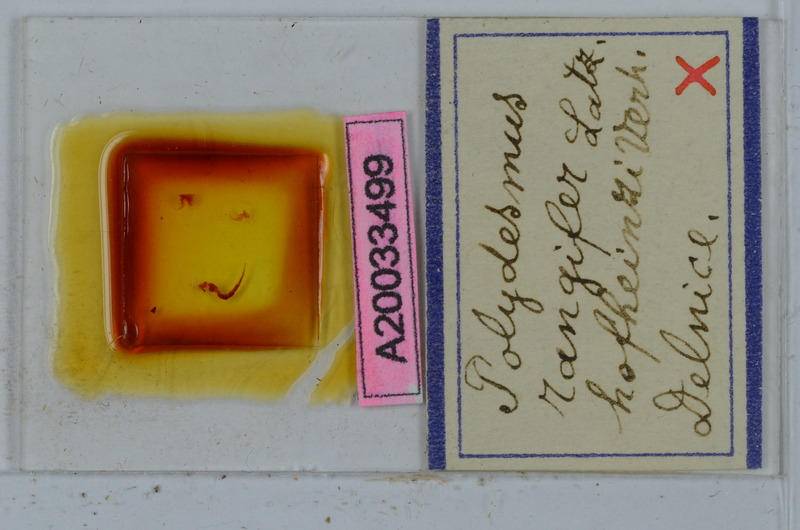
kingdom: Animalia
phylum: Arthropoda
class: Diplopoda
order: Polydesmida
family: Polydesmidae
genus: Polydesmus
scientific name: Polydesmus rangifer
